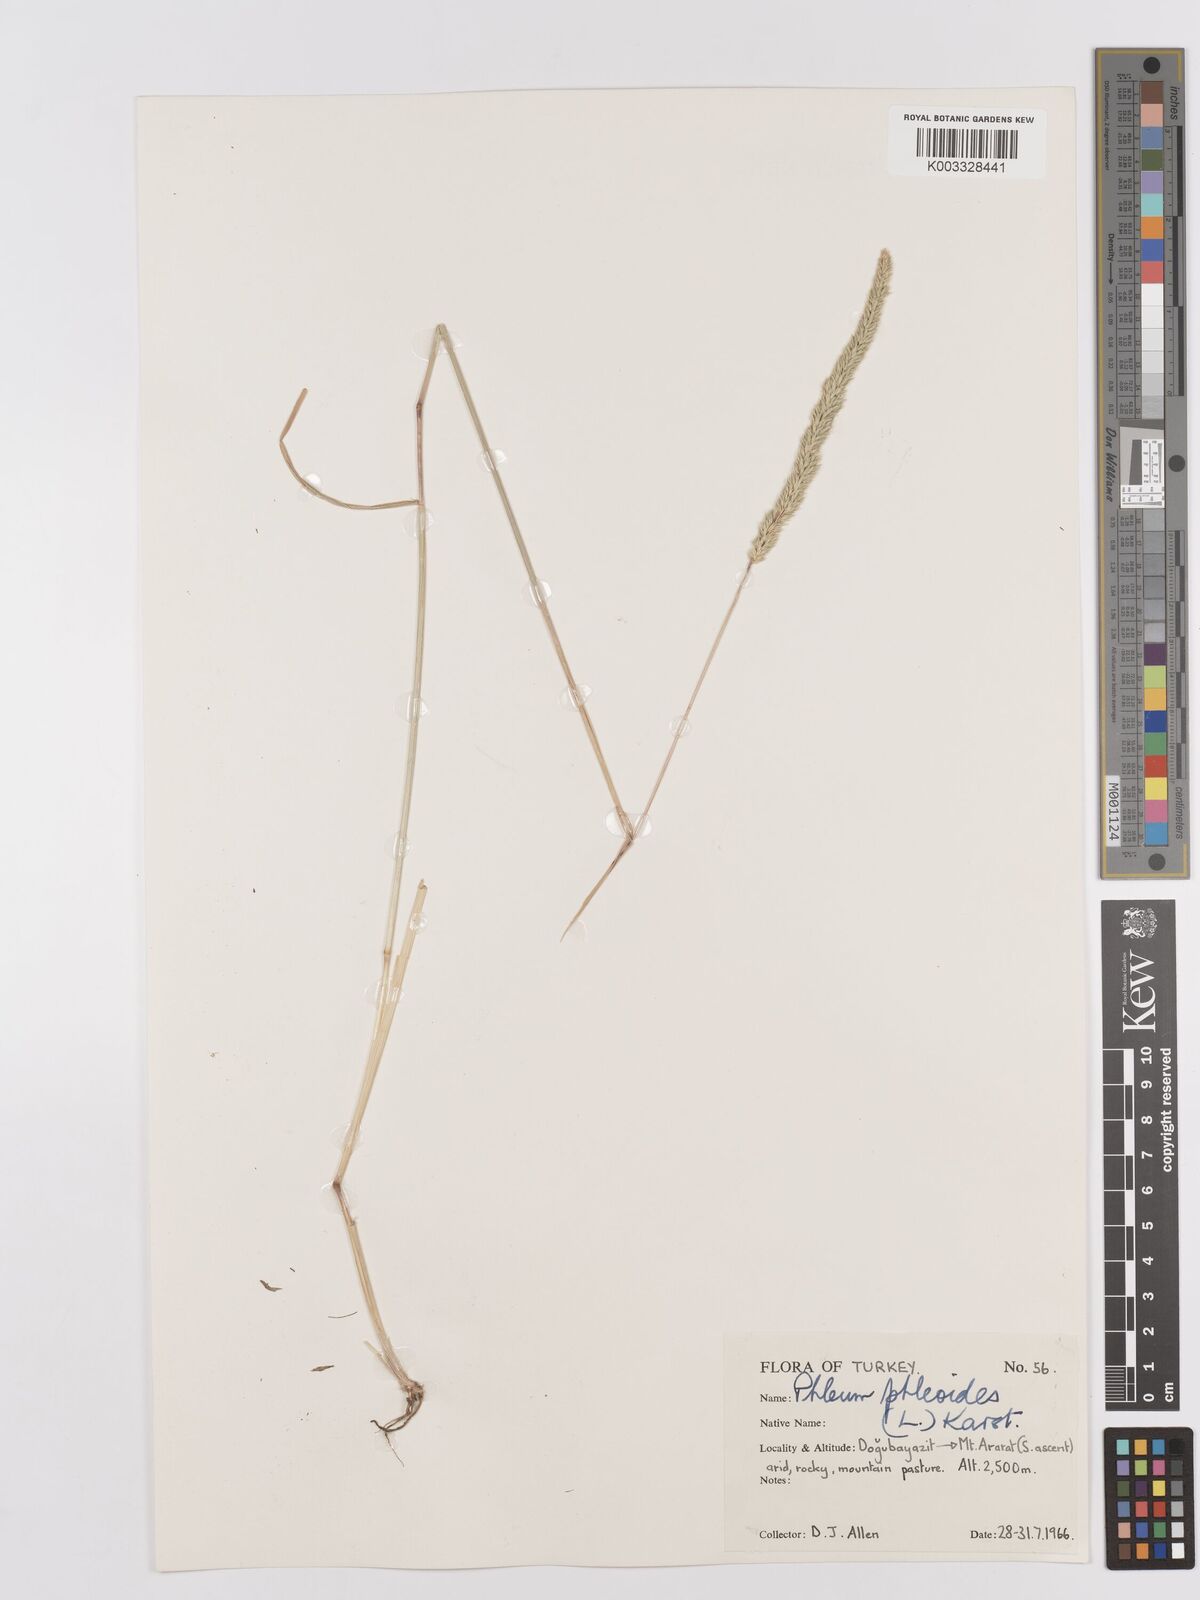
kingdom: Plantae
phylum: Tracheophyta
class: Liliopsida
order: Poales
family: Poaceae
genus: Phleum
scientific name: Phleum phleoides
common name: Purple-stem cat's-tail
